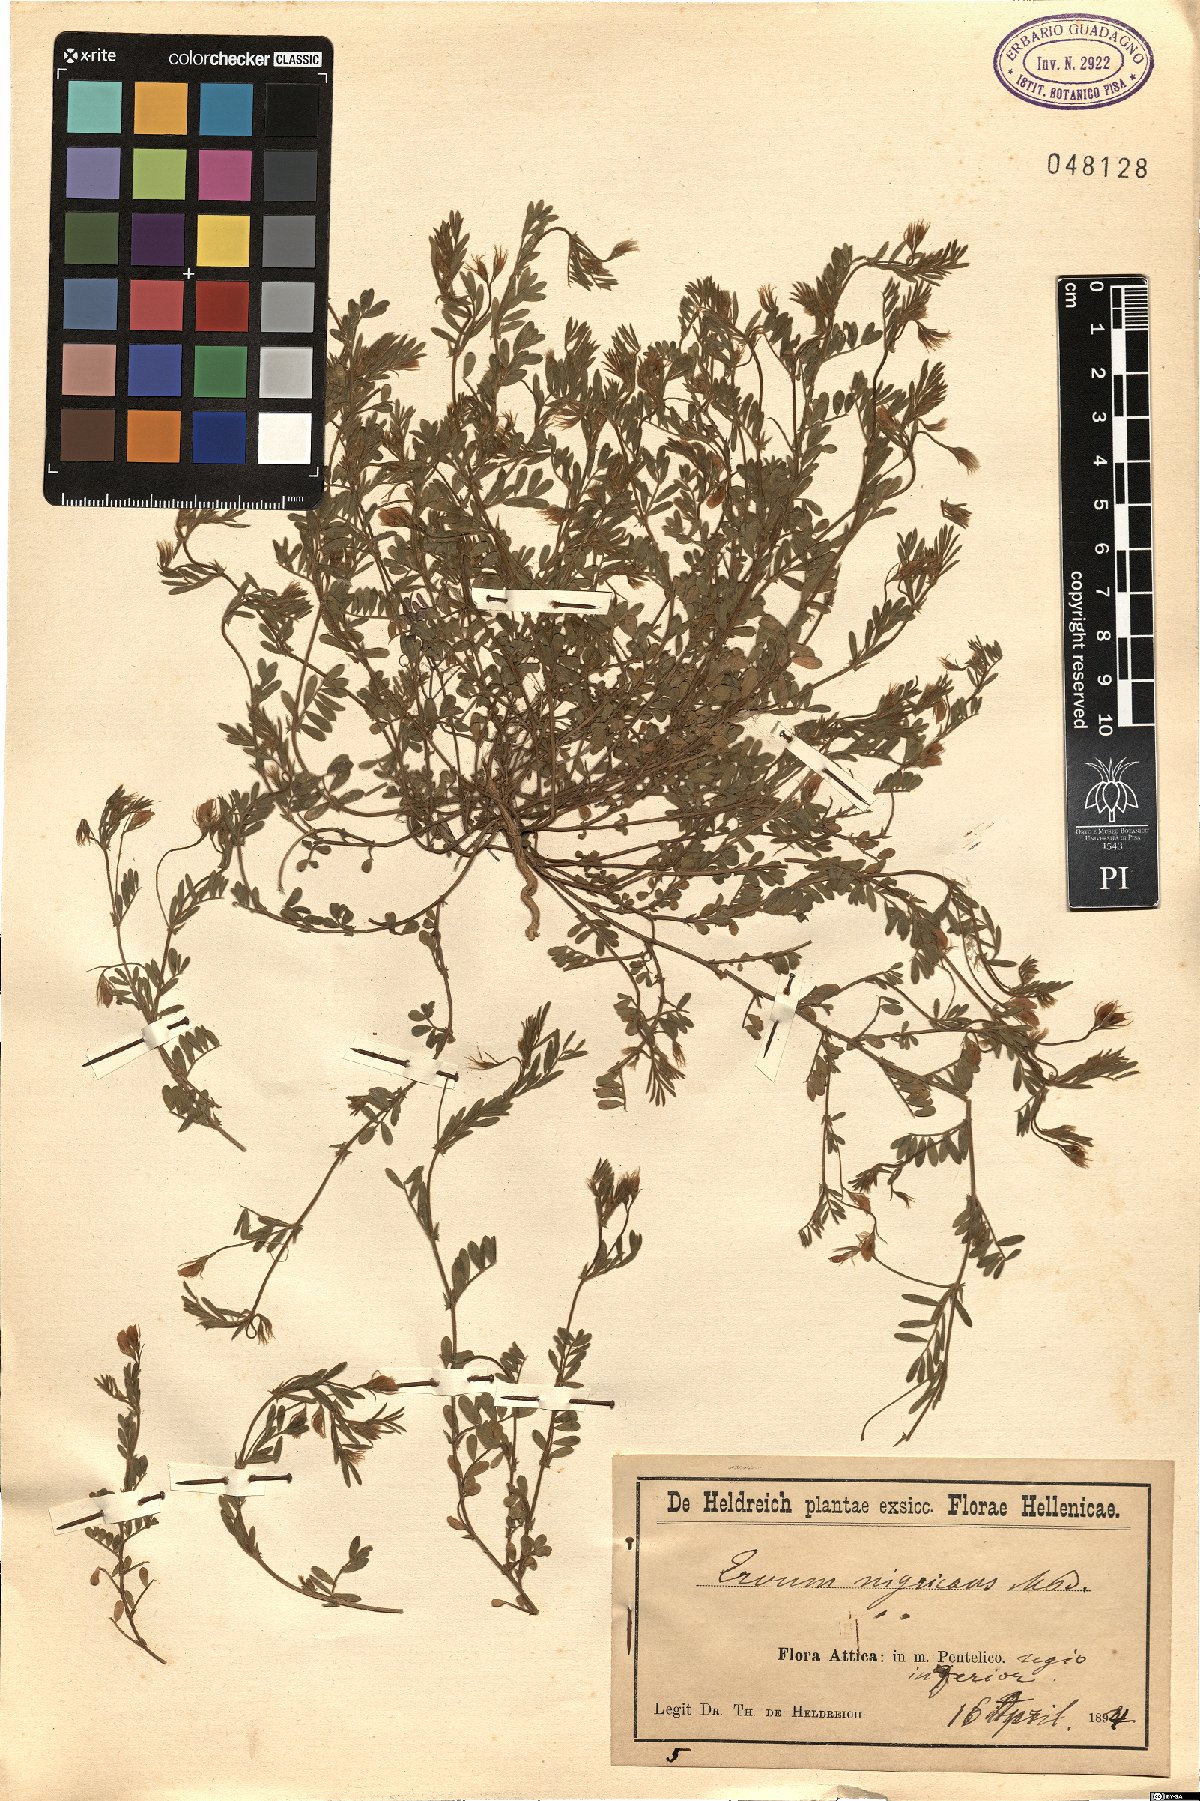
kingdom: Plantae
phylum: Tracheophyta
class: Magnoliopsida
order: Fabales
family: Fabaceae
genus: Vicia
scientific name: Vicia lentoides
